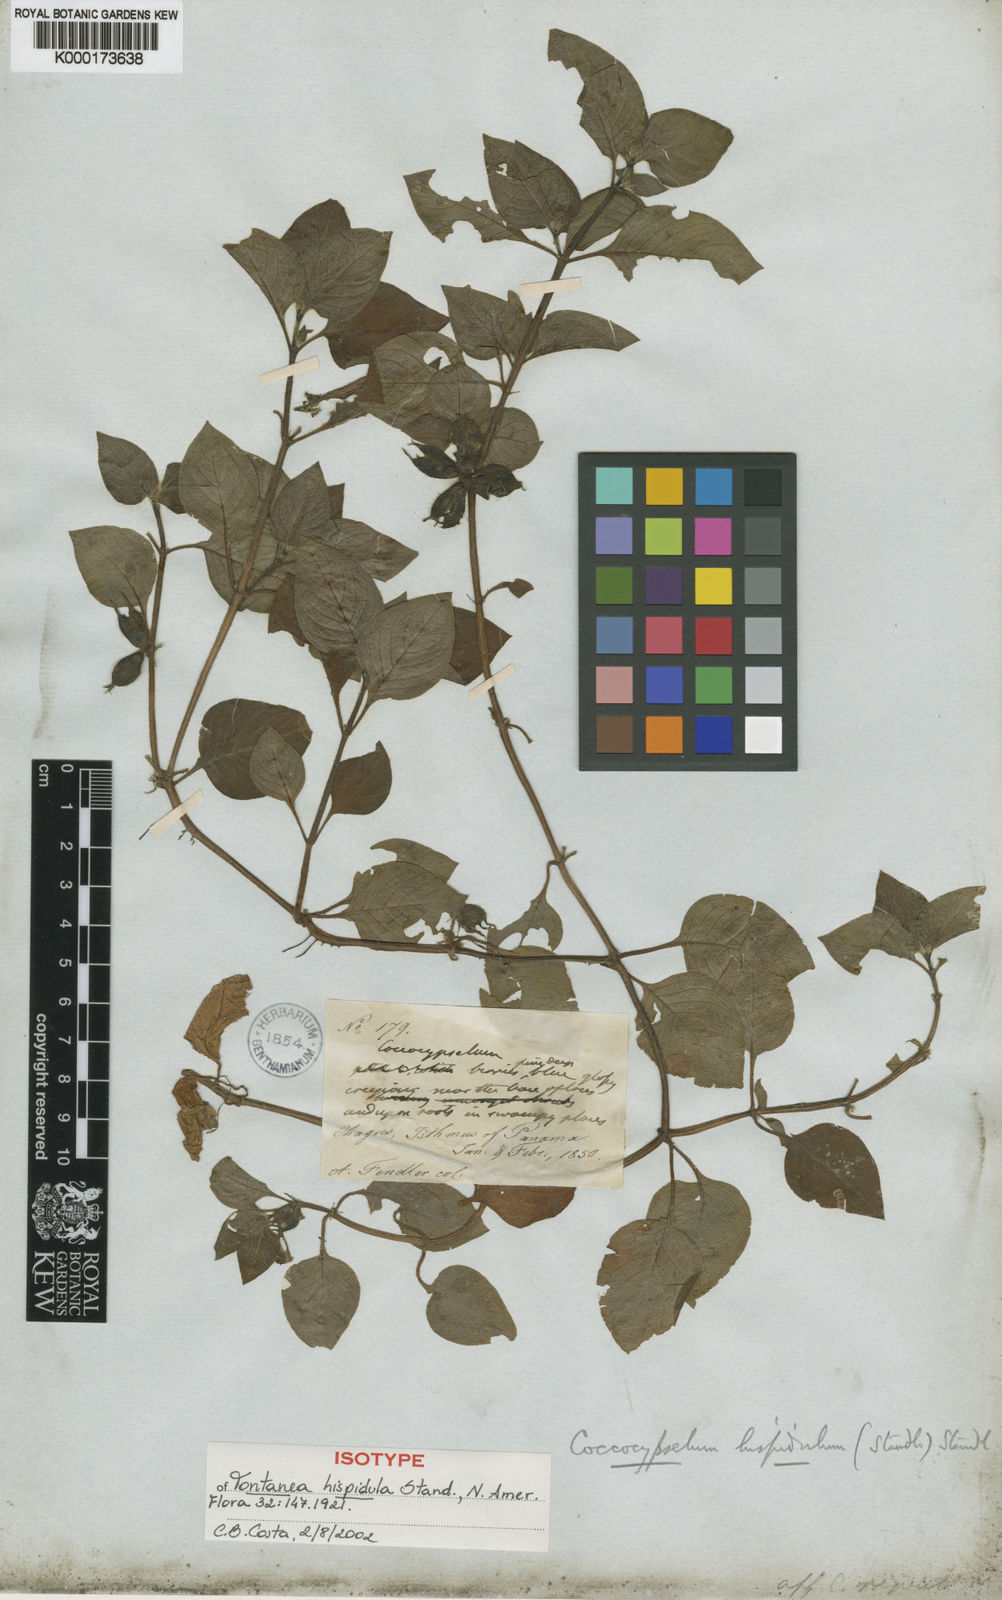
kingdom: Plantae
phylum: Tracheophyta
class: Magnoliopsida
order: Gentianales
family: Rubiaceae
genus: Coccocypselum
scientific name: Coccocypselum hispidulum
